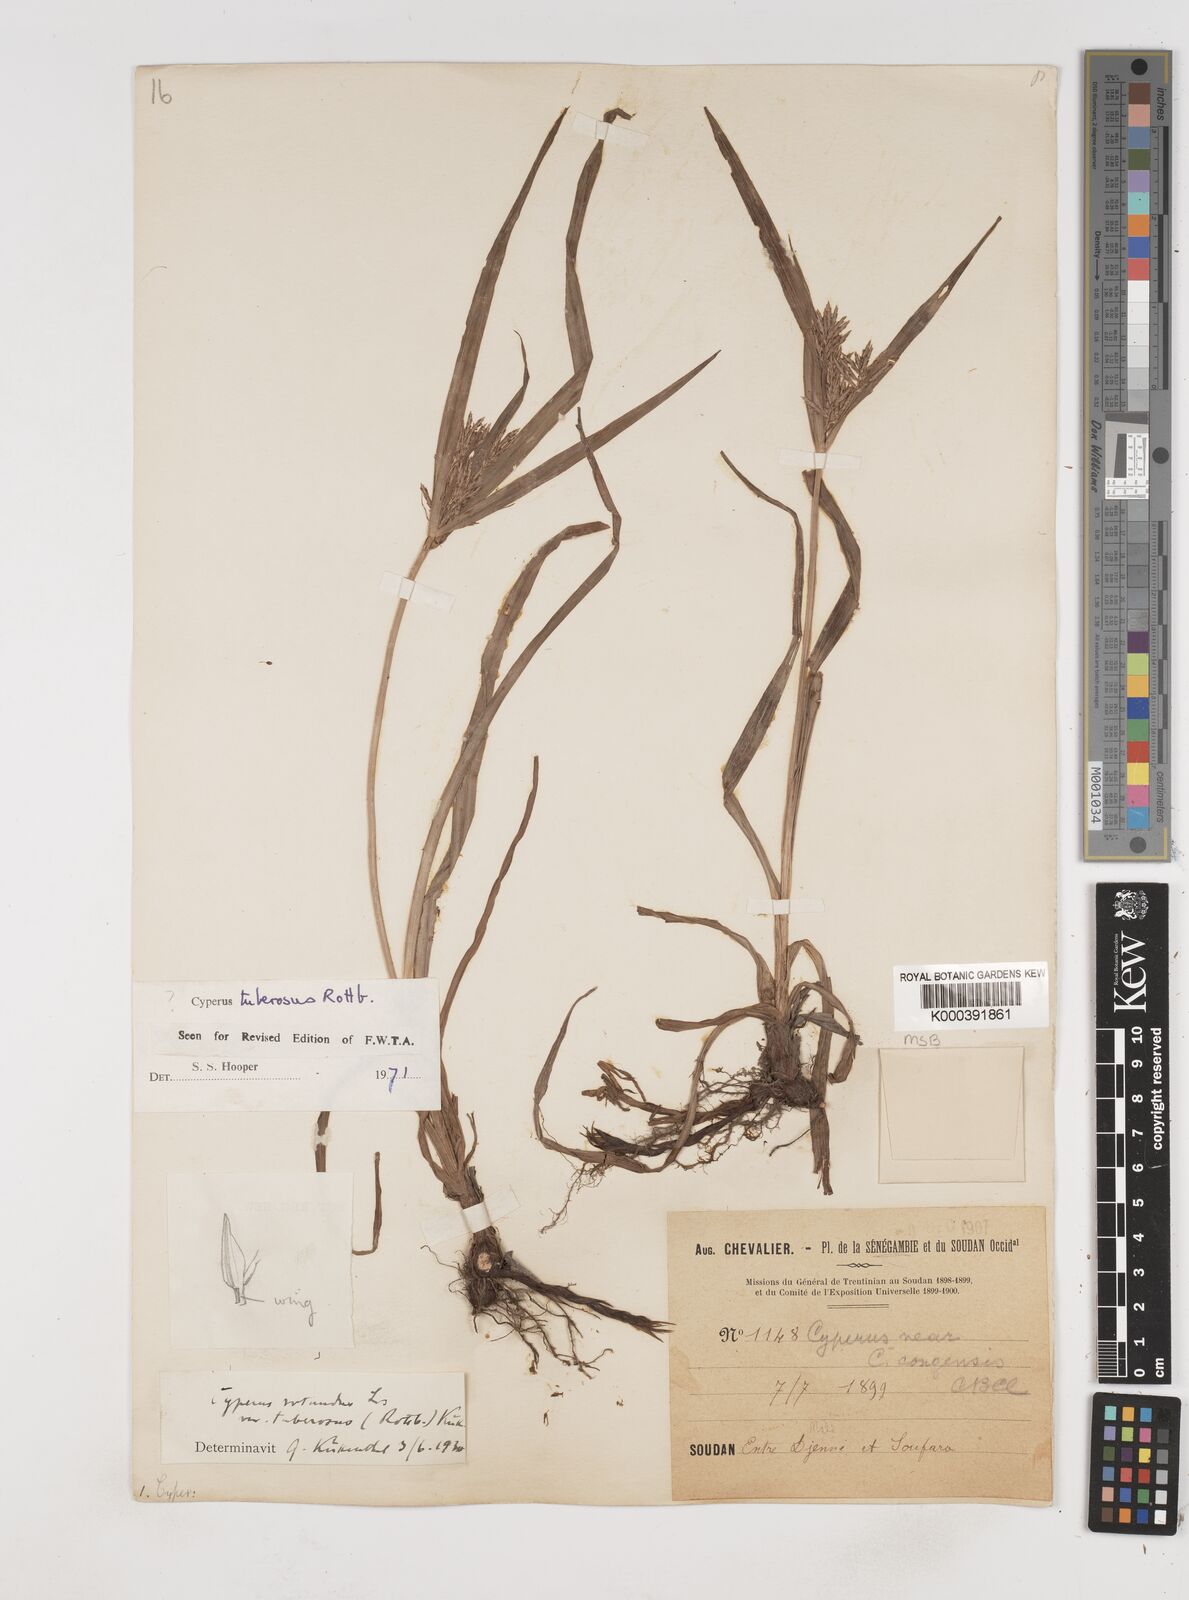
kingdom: Plantae
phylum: Tracheophyta
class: Liliopsida
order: Poales
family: Cyperaceae
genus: Cyperus
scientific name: Cyperus rotundus
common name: Nutgrass
